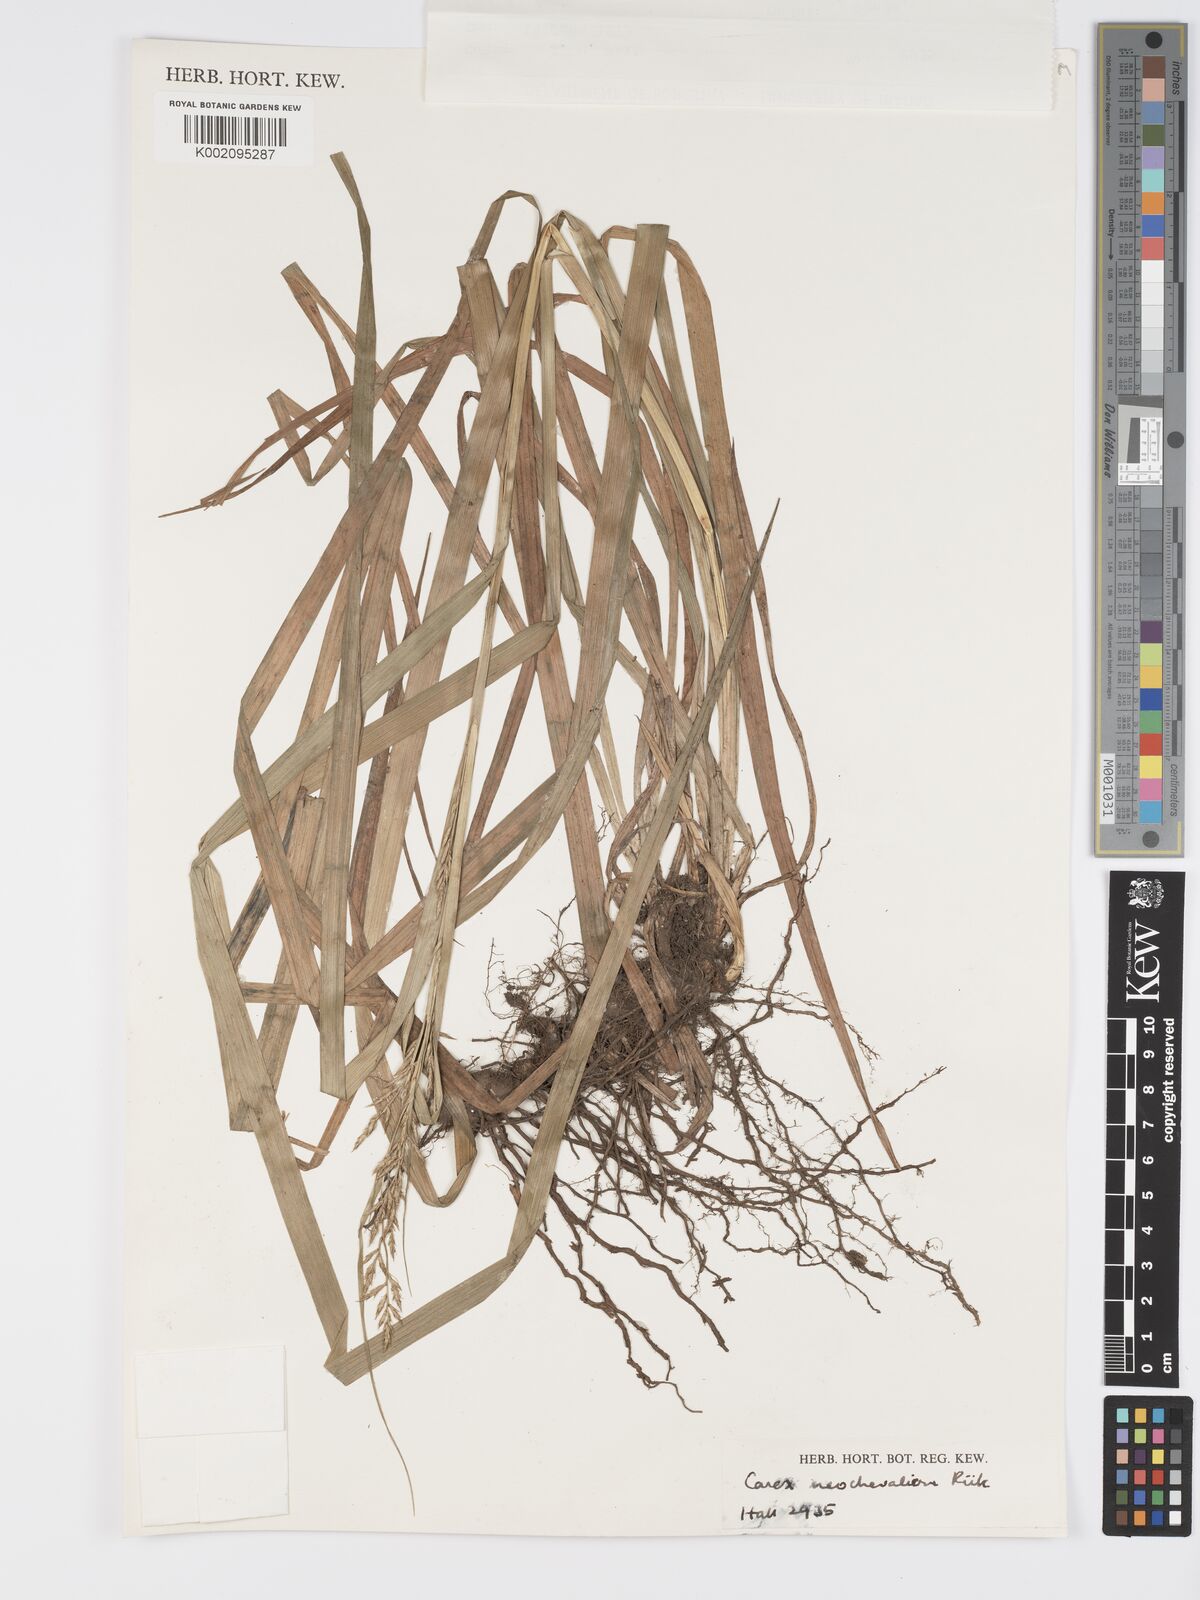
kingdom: Plantae
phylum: Tracheophyta
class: Liliopsida
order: Poales
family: Cyperaceae
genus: Carex
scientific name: Carex neochevalieri
